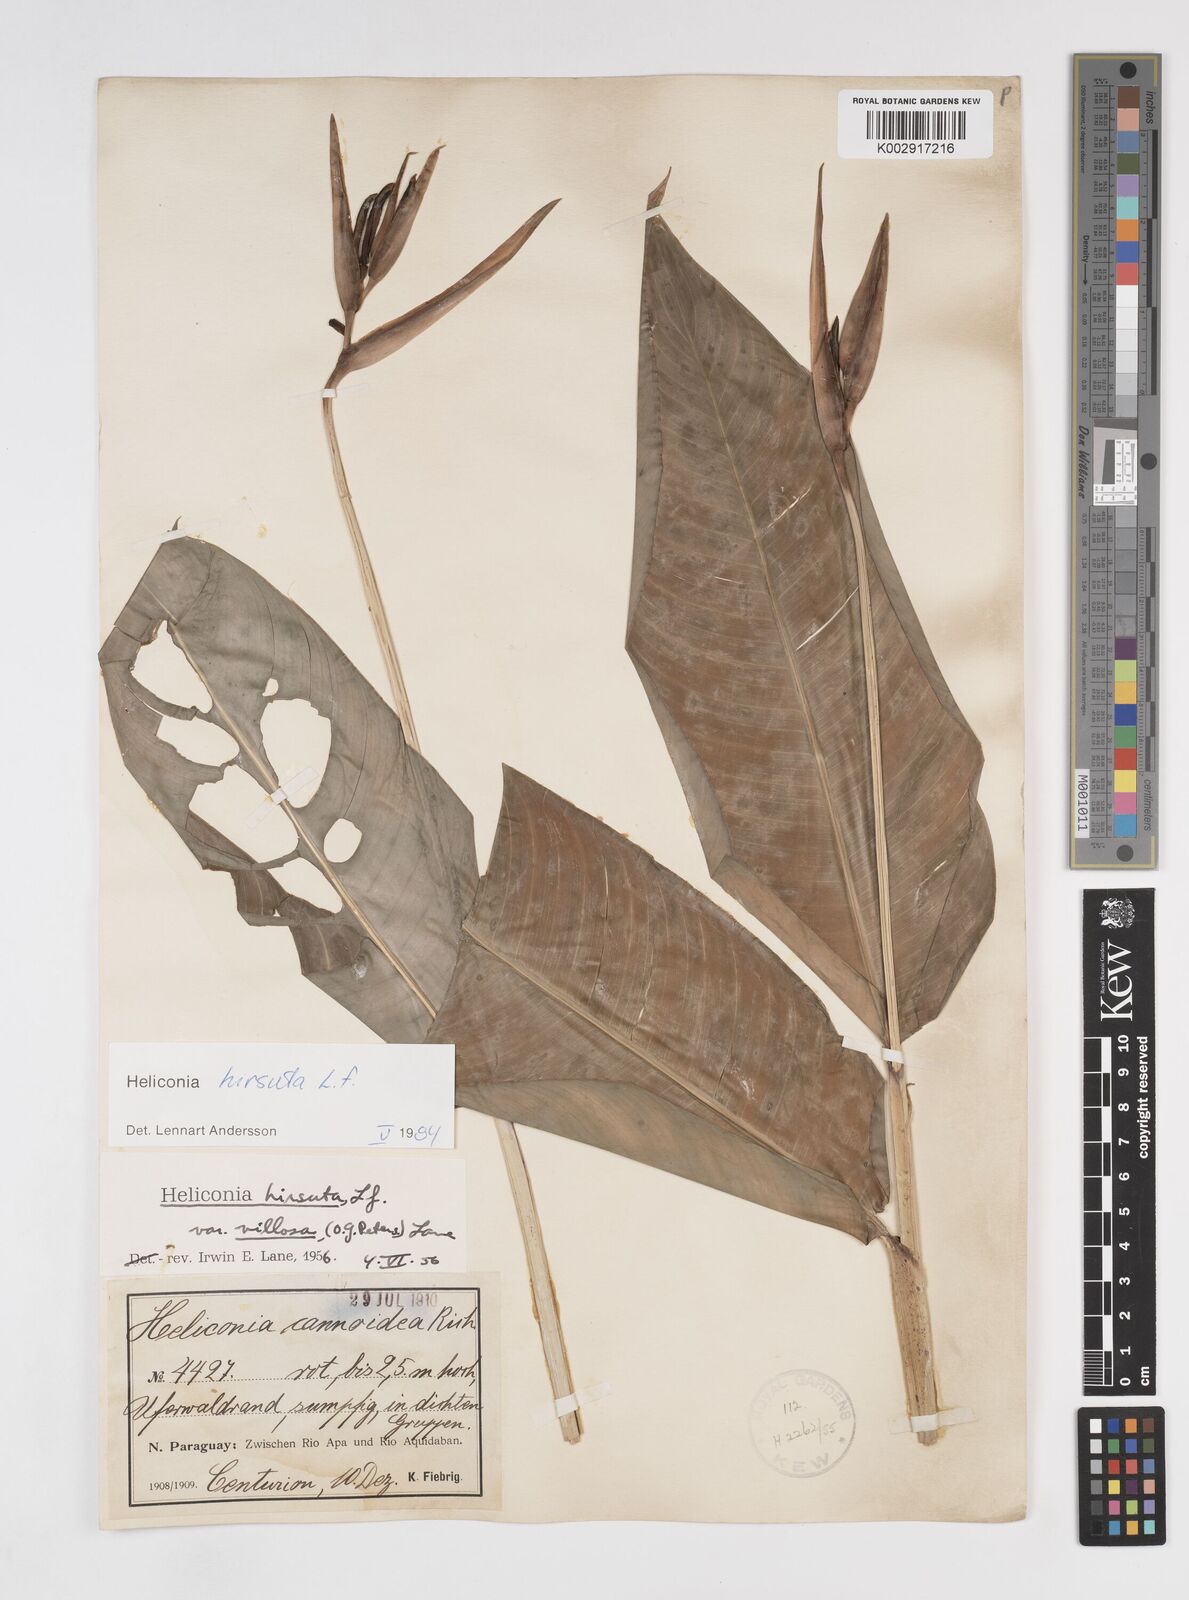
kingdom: Plantae
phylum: Tracheophyta
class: Liliopsida
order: Zingiberales
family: Heliconiaceae
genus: Heliconia
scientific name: Heliconia schiedeana
